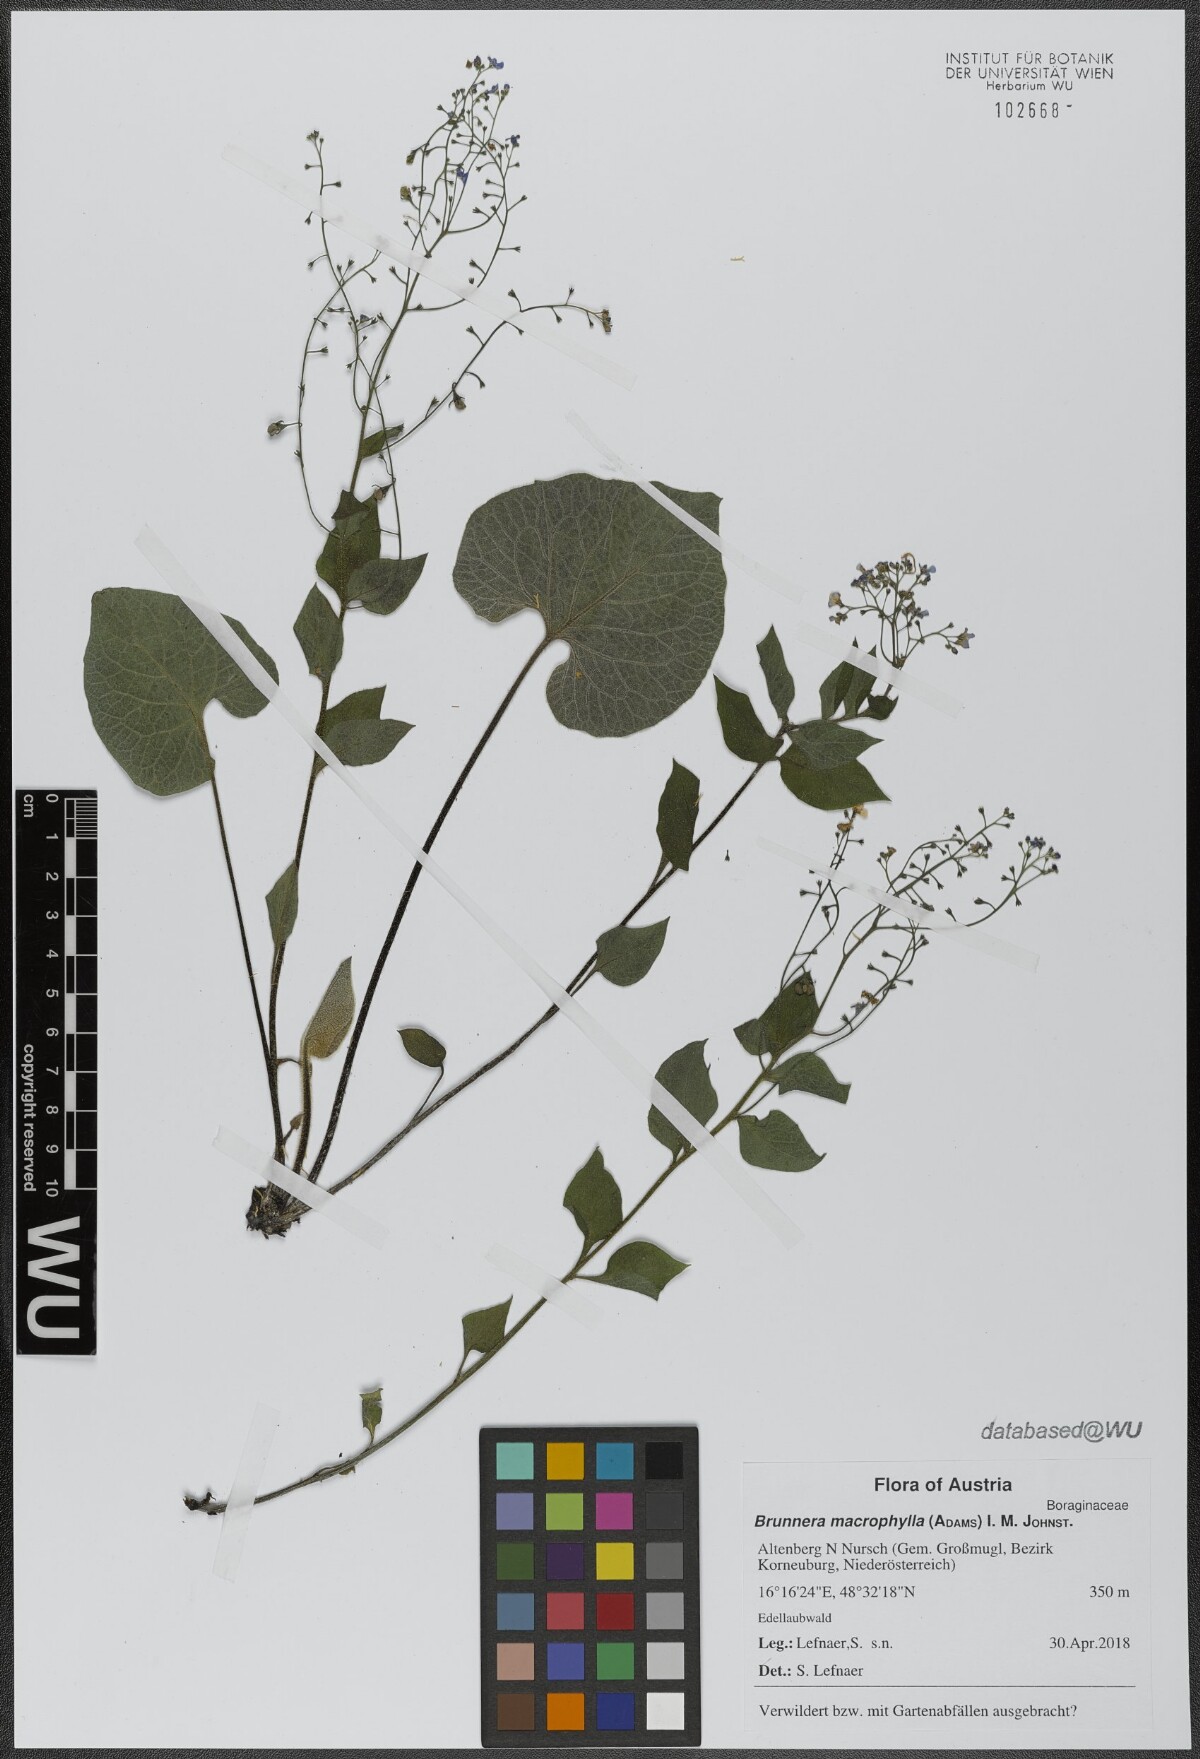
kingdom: Plantae
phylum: Tracheophyta
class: Magnoliopsida
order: Boraginales
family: Boraginaceae
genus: Brunnera
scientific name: Brunnera macrophylla
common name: Great forget-me-not
